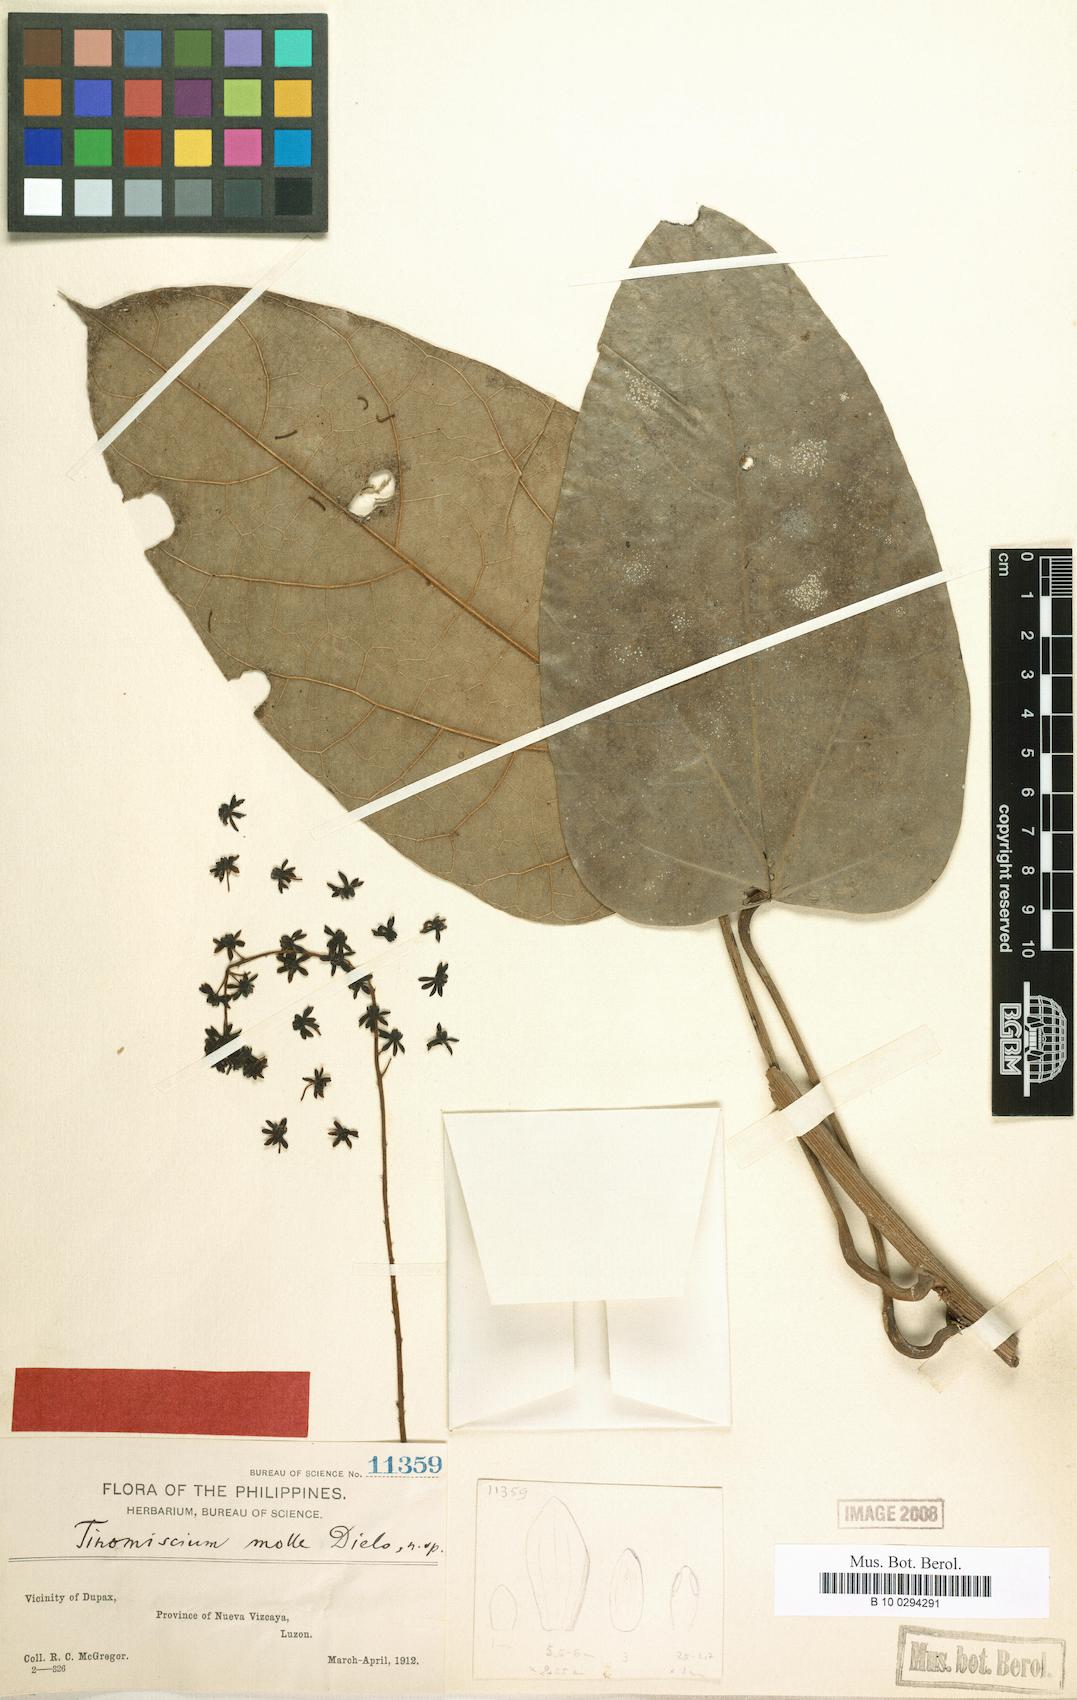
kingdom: Plantae
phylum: Tracheophyta
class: Magnoliopsida
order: Ranunculales
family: Menispermaceae
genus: Tinomiscium
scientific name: Tinomiscium petiolare
